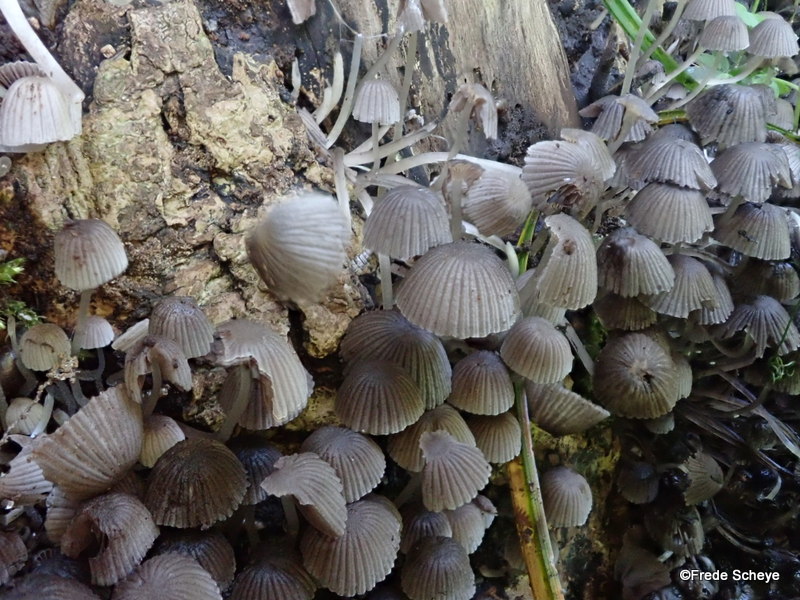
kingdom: Fungi
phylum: Basidiomycota
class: Agaricomycetes
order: Agaricales
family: Psathyrellaceae
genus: Coprinellus
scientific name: Coprinellus disseminatus
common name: bredsået blækhat
